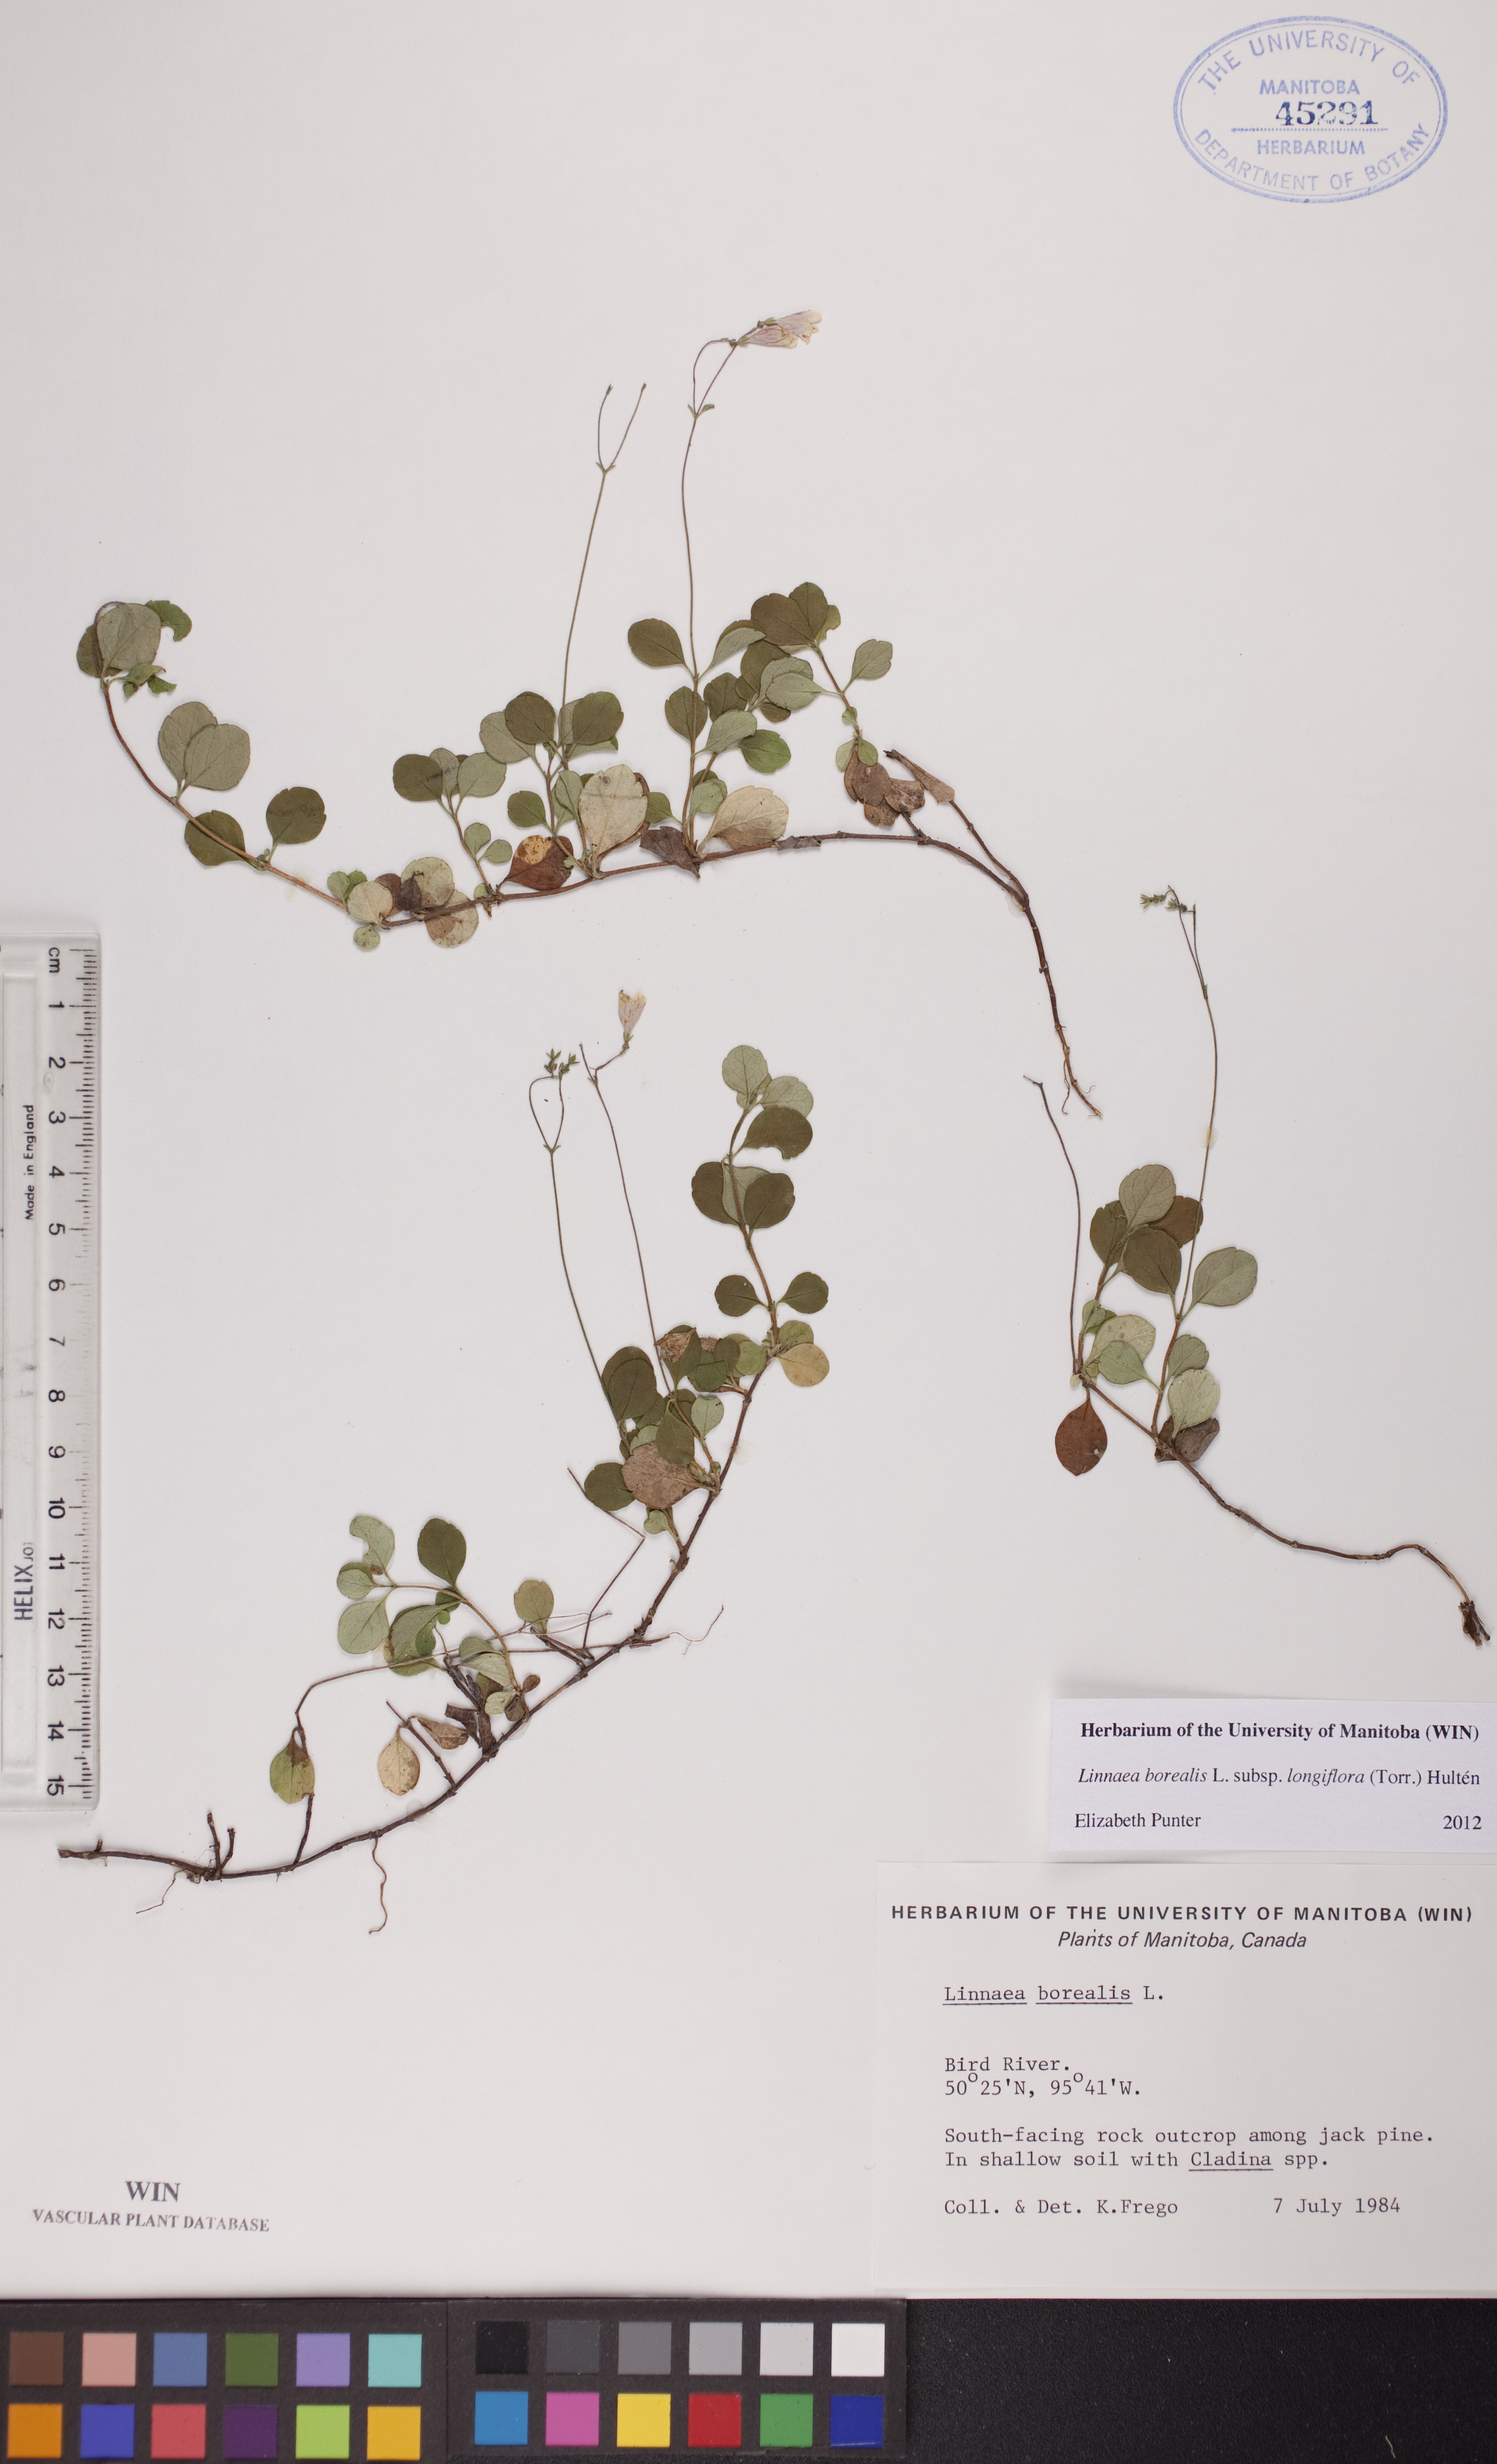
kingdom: Plantae
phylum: Tracheophyta
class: Magnoliopsida
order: Dipsacales
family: Caprifoliaceae
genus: Linnaea
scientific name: Linnaea borealis
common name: Twinflower
